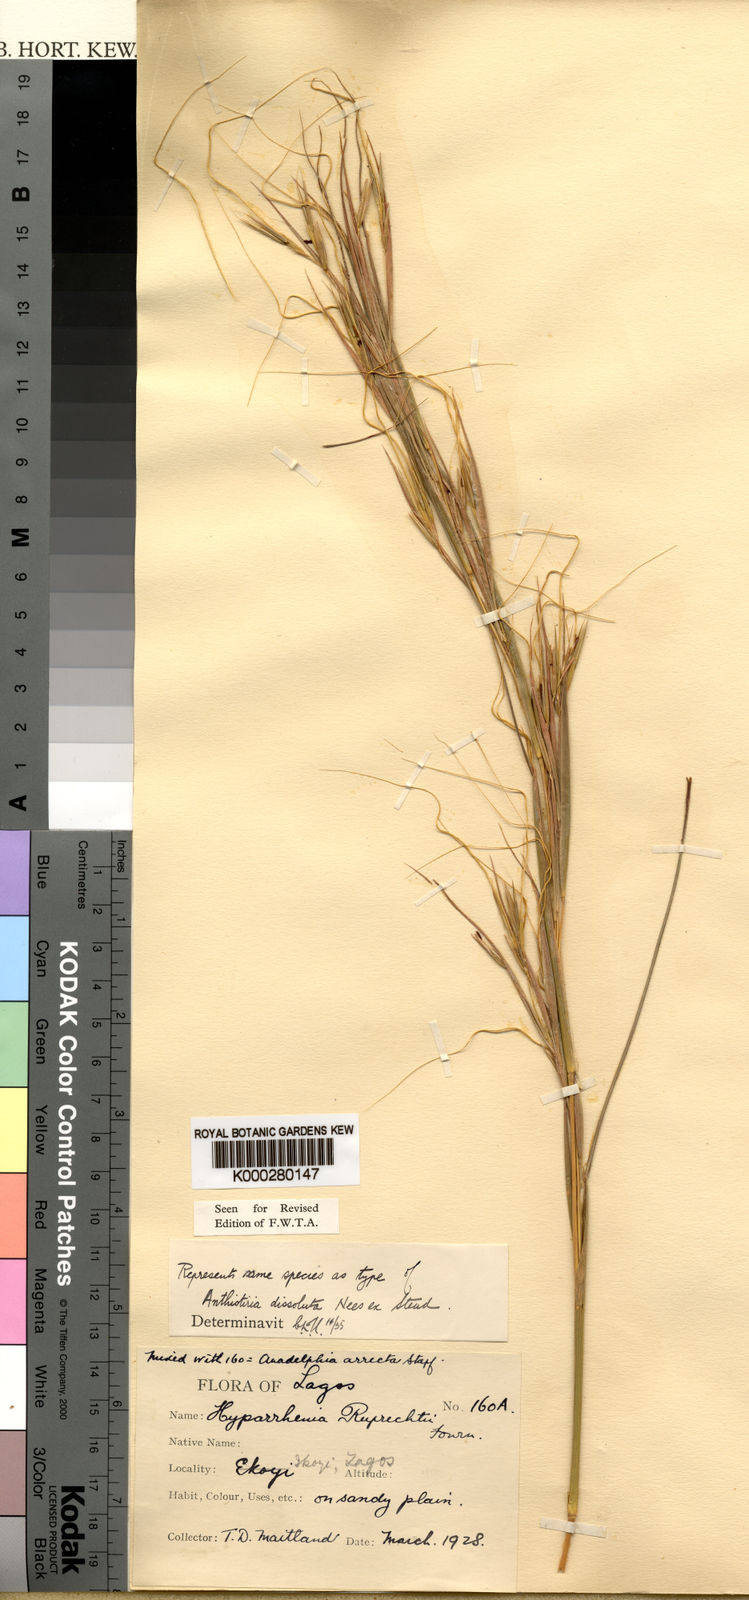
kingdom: Plantae
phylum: Tracheophyta
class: Liliopsida
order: Poales
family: Poaceae
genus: Hyperthelia
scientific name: Hyperthelia dissoluta
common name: Yellow thatching grass
